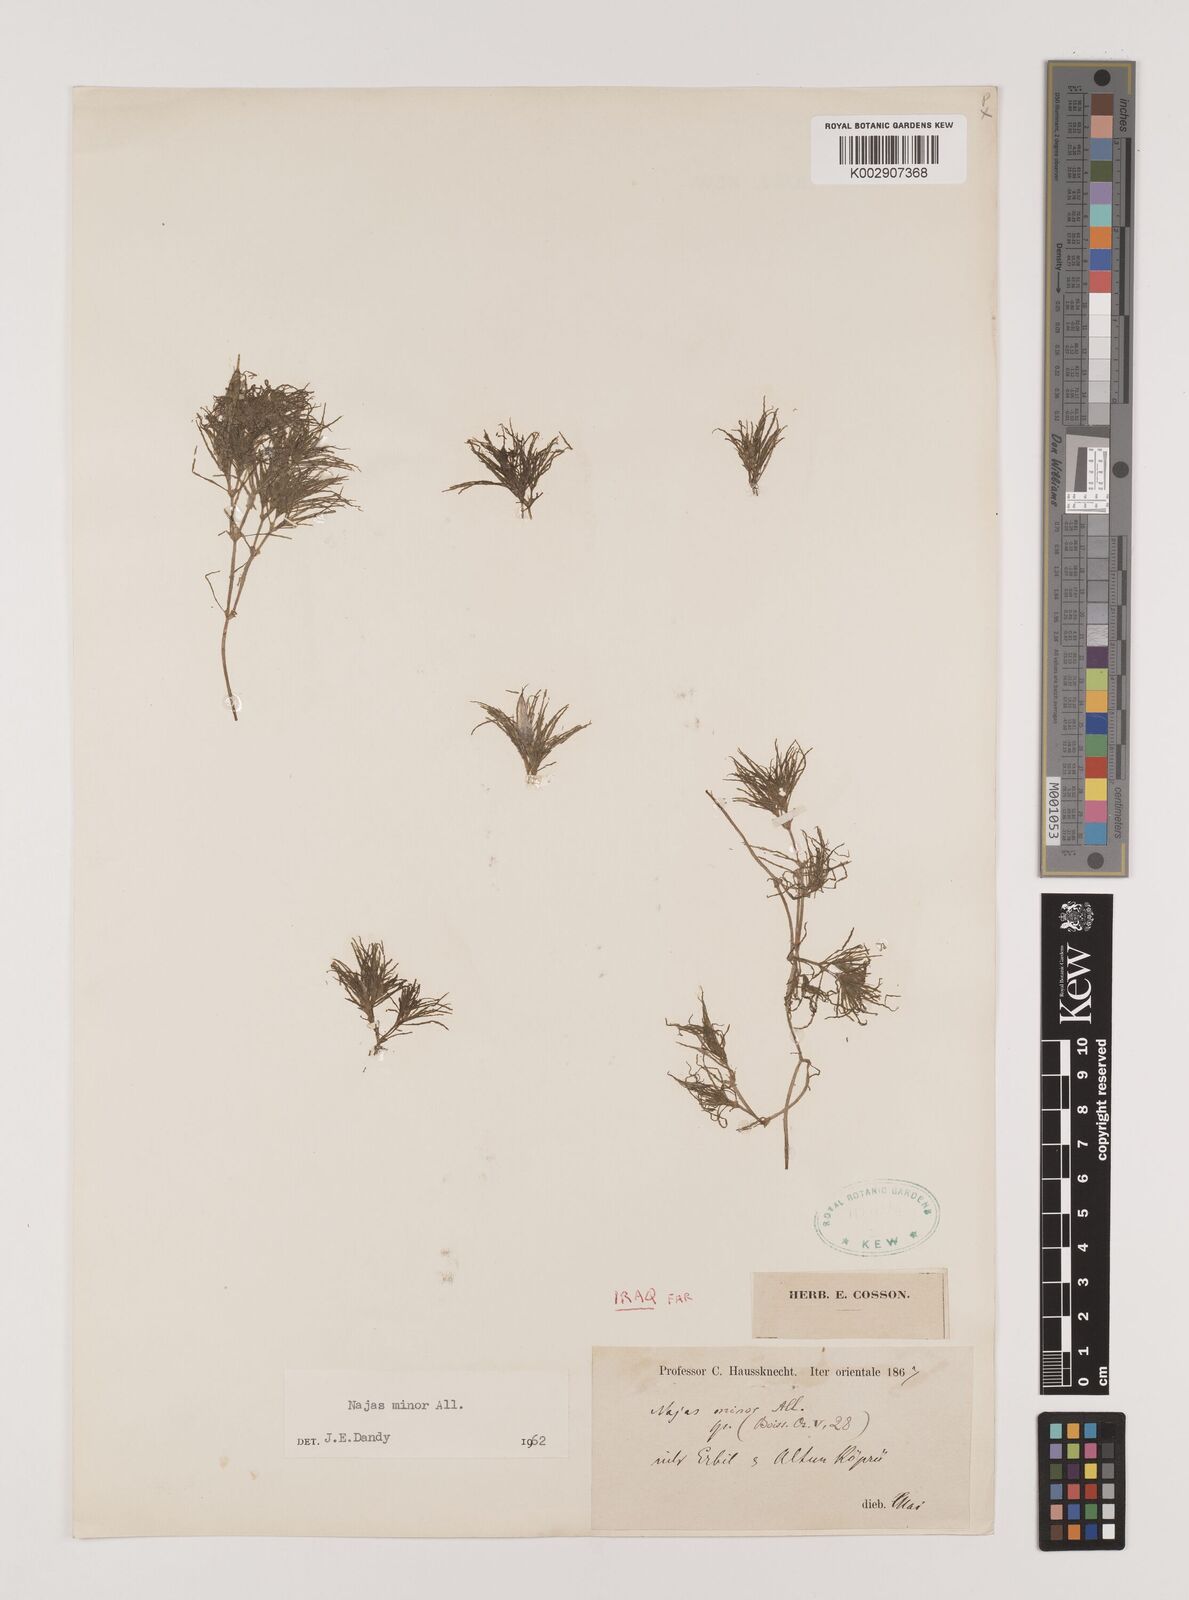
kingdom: Plantae
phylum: Tracheophyta
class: Liliopsida
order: Alismatales
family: Hydrocharitaceae
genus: Najas
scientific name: Najas minor
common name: Brittle naiad
